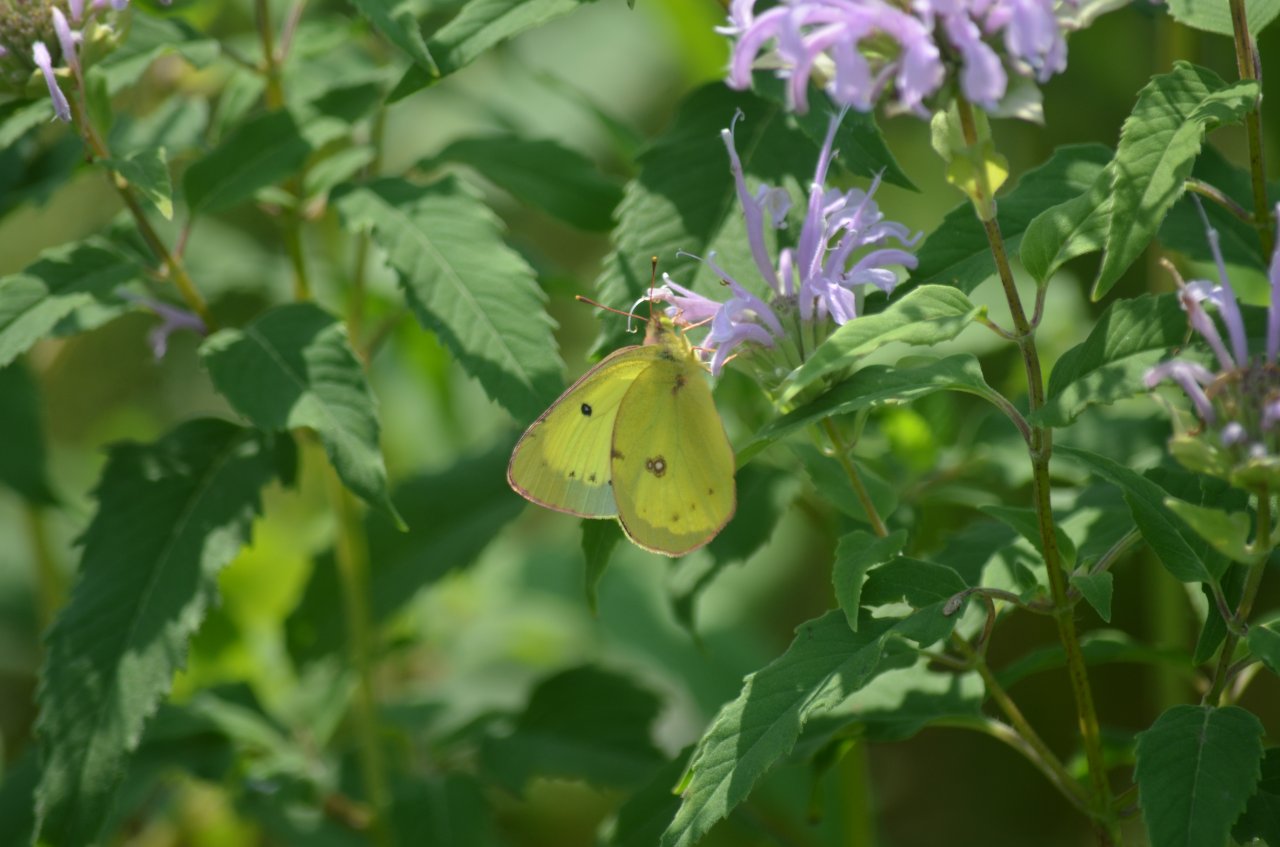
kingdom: Animalia
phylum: Arthropoda
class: Insecta
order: Lepidoptera
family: Pieridae
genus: Colias
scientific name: Colias philodice
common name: Clouded Sulphur
